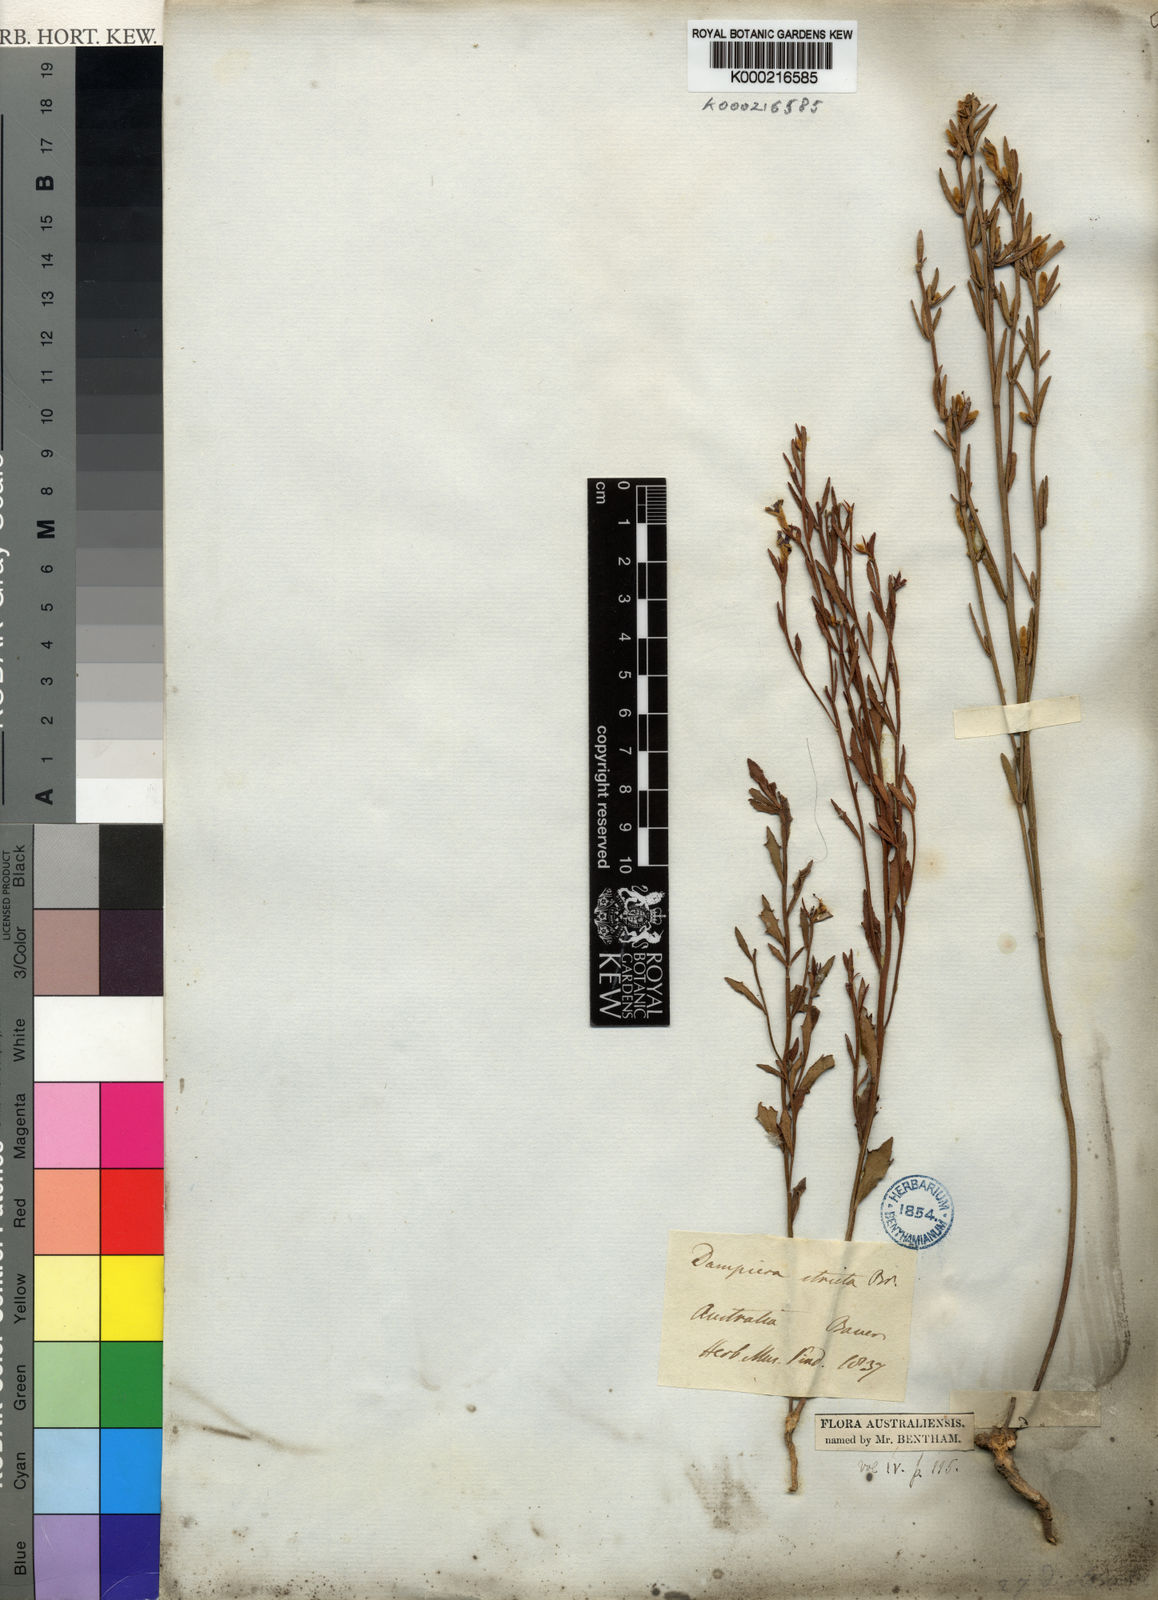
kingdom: Plantae
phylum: Tracheophyta
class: Magnoliopsida
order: Asterales
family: Goodeniaceae
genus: Dampiera
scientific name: Dampiera stricta
